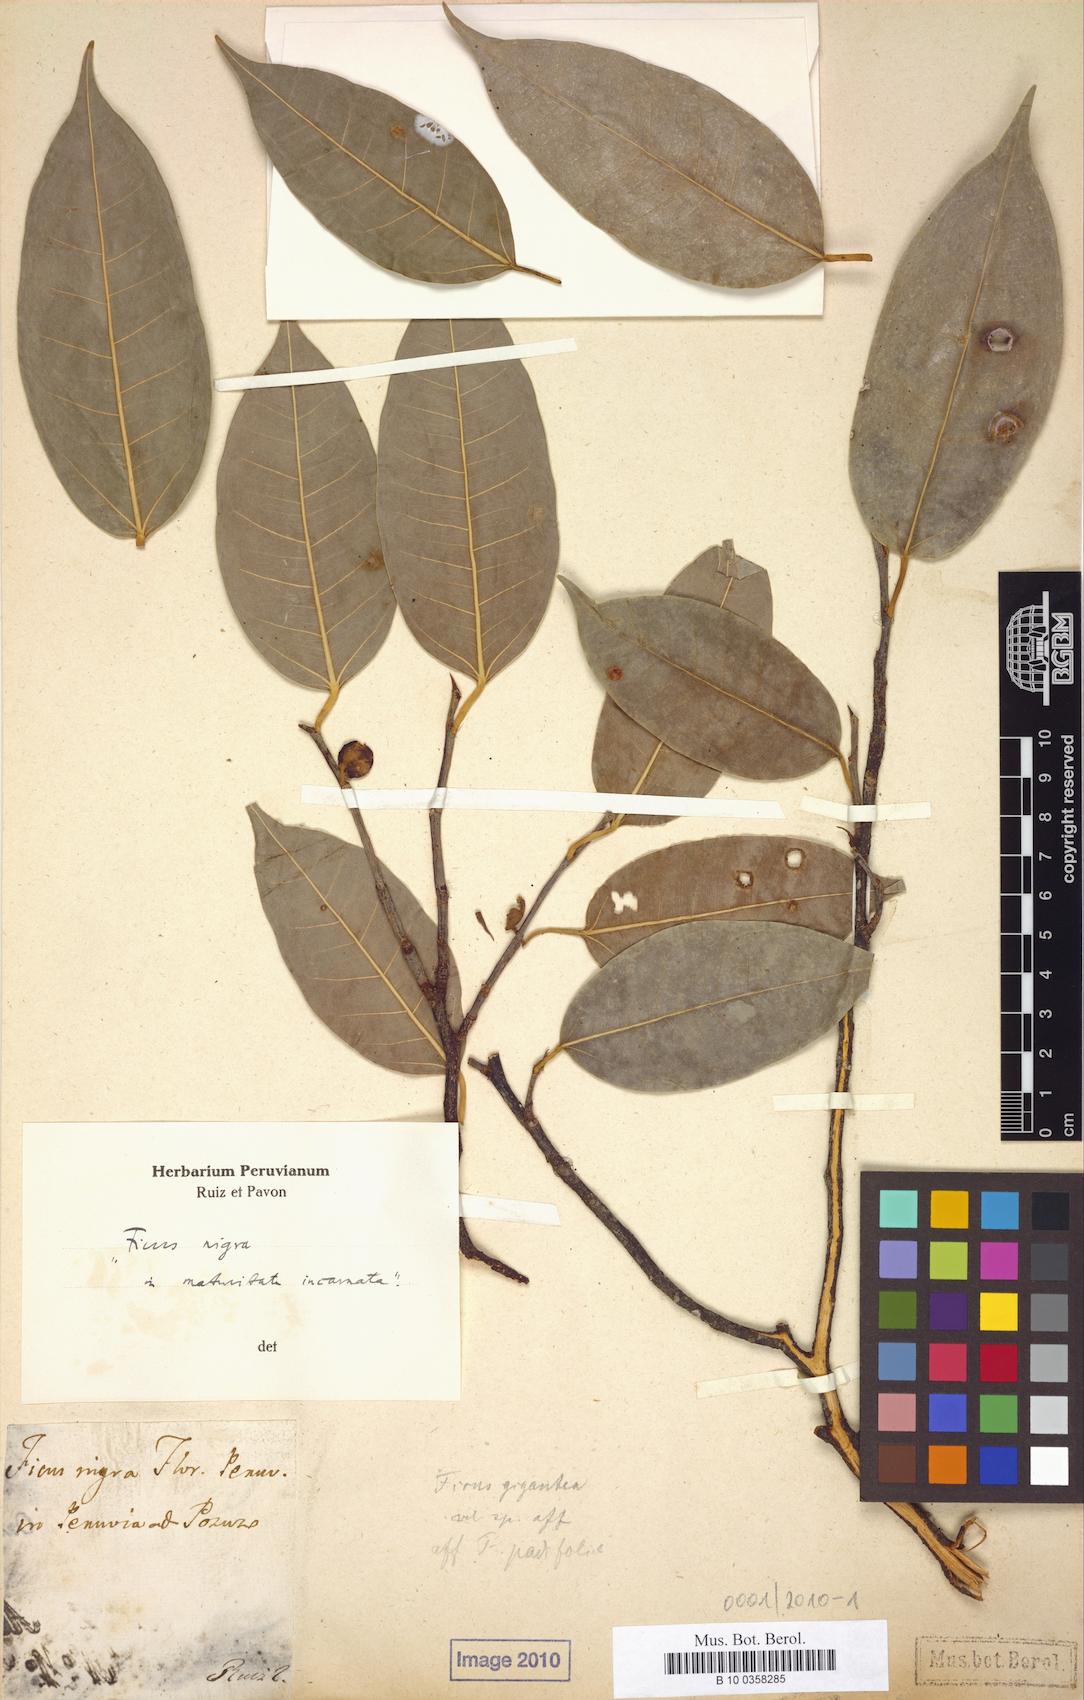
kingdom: Plantae
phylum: Tracheophyta
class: Magnoliopsida
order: Rosales
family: Moraceae
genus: Ficus
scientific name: Ficus pertusa
